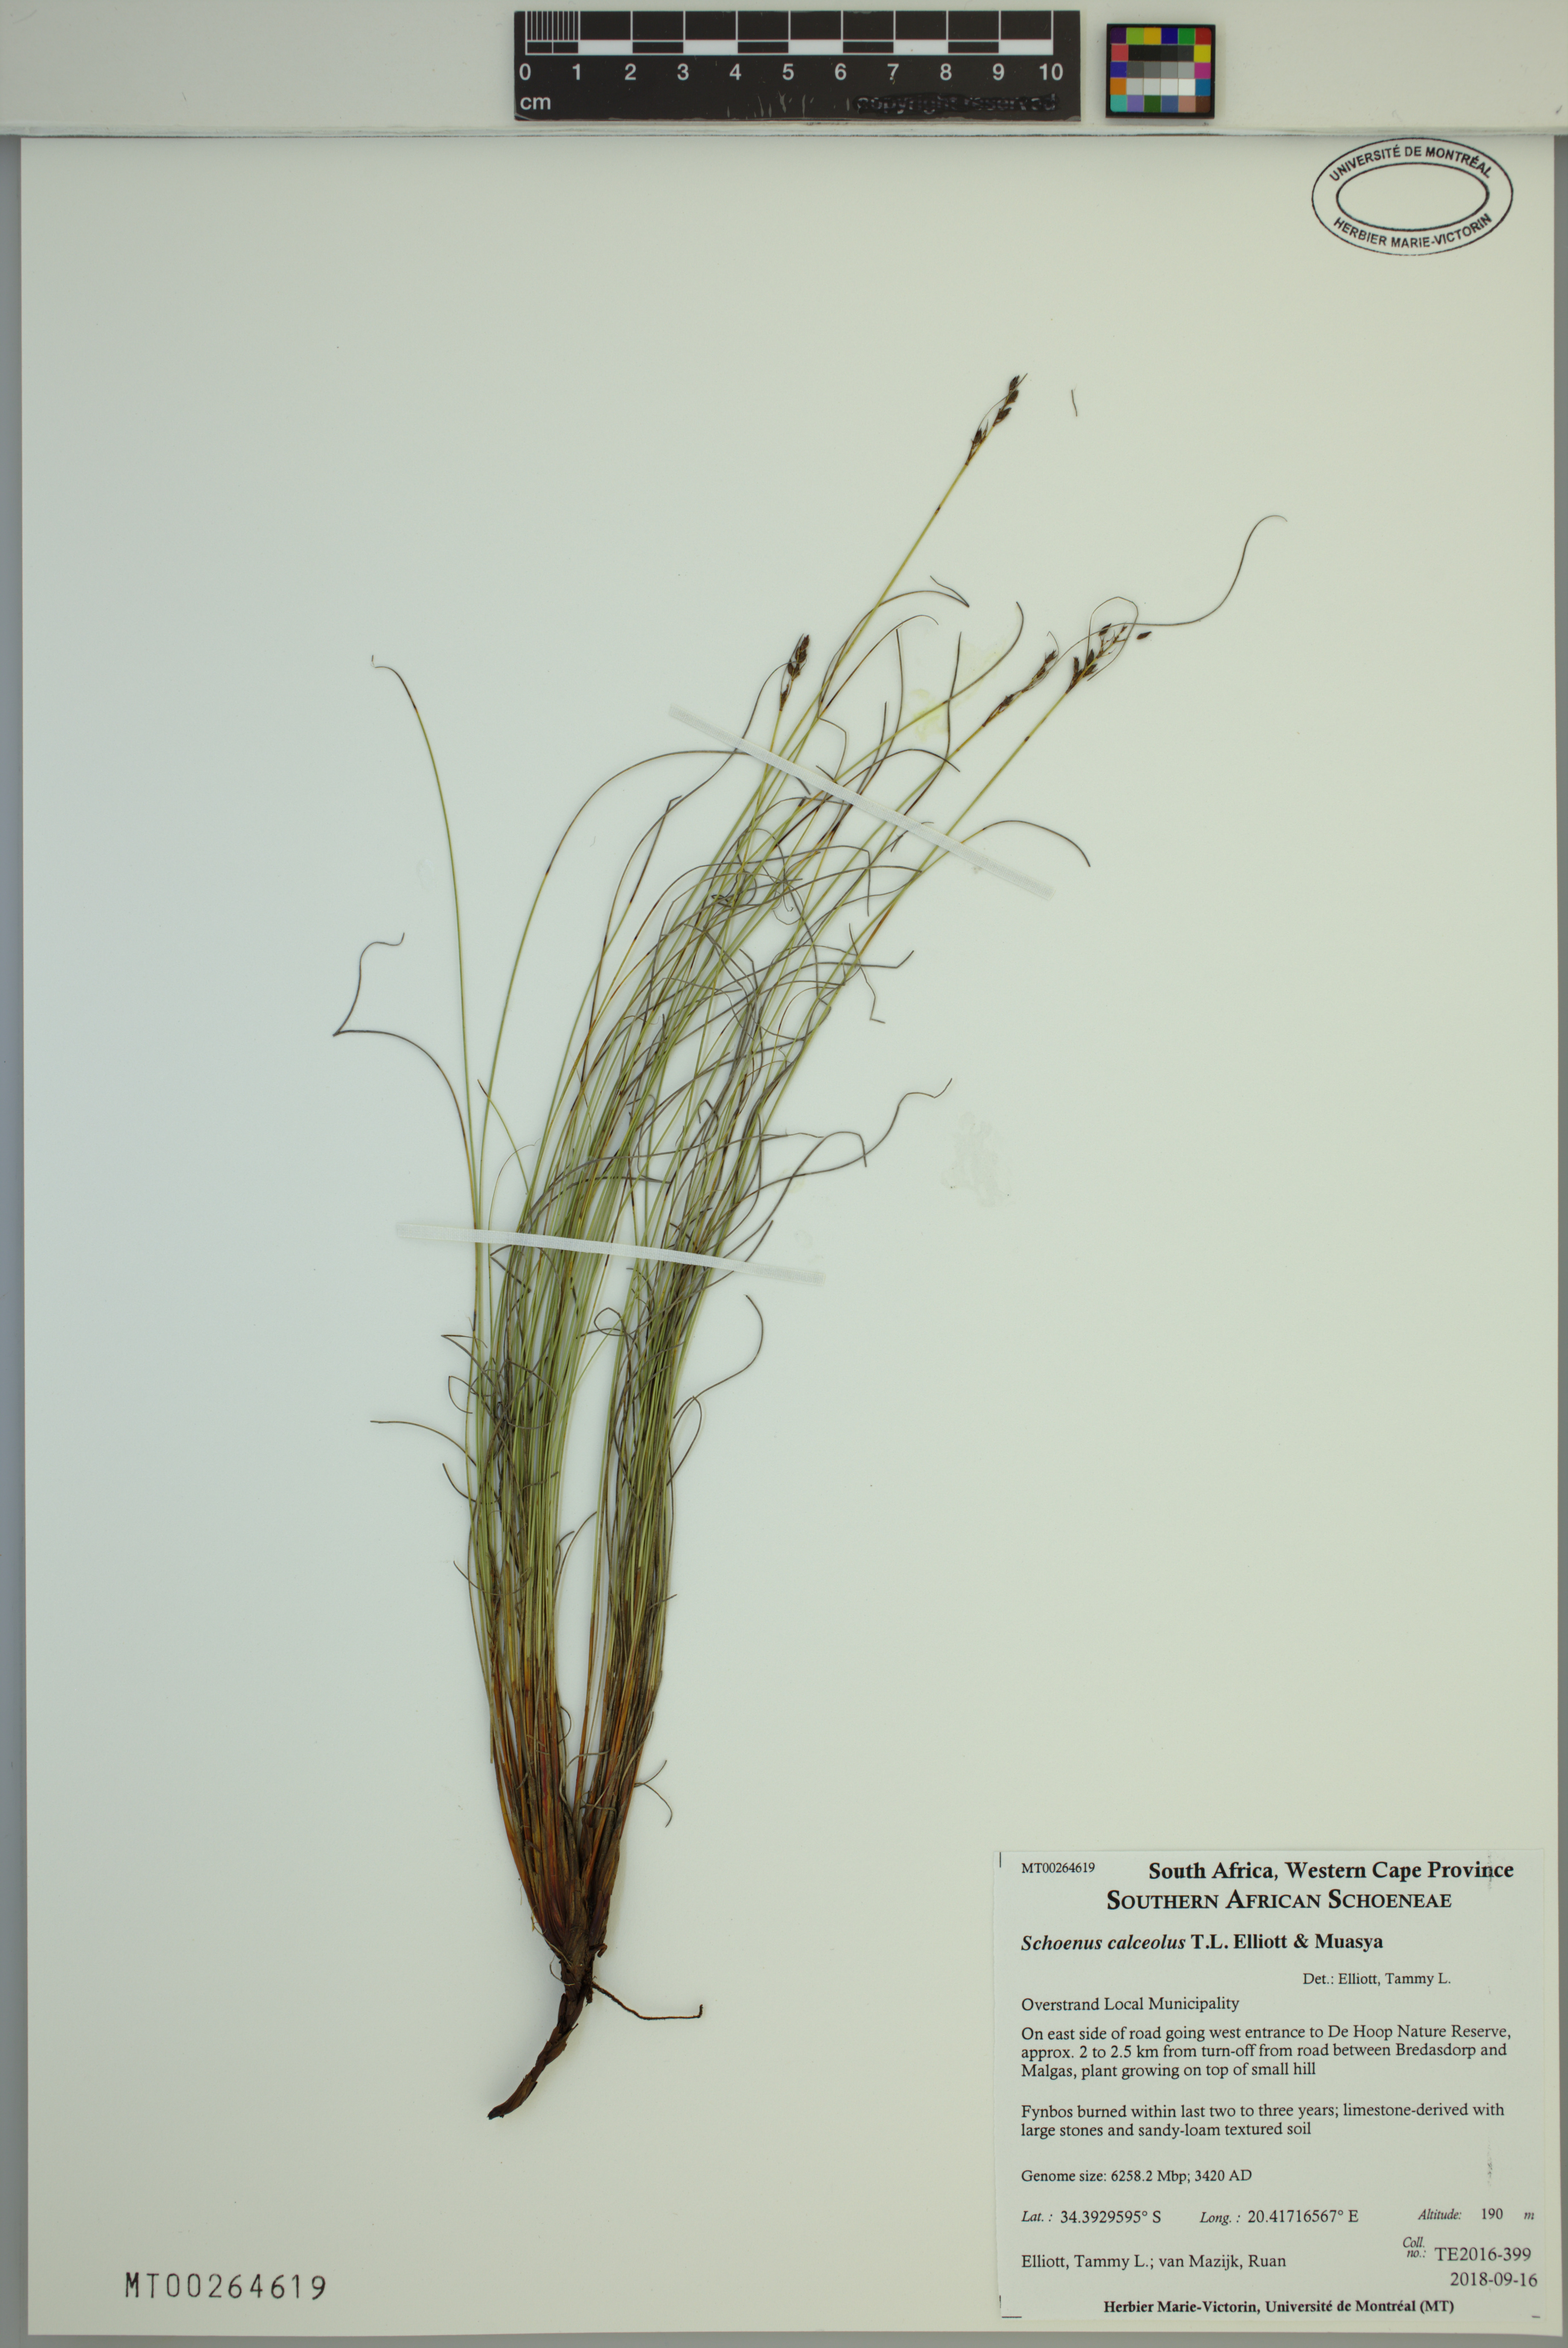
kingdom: Plantae
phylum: Tracheophyta
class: Liliopsida
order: Poales
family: Cyperaceae
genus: Schoenus
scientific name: Schoenus calceolus
